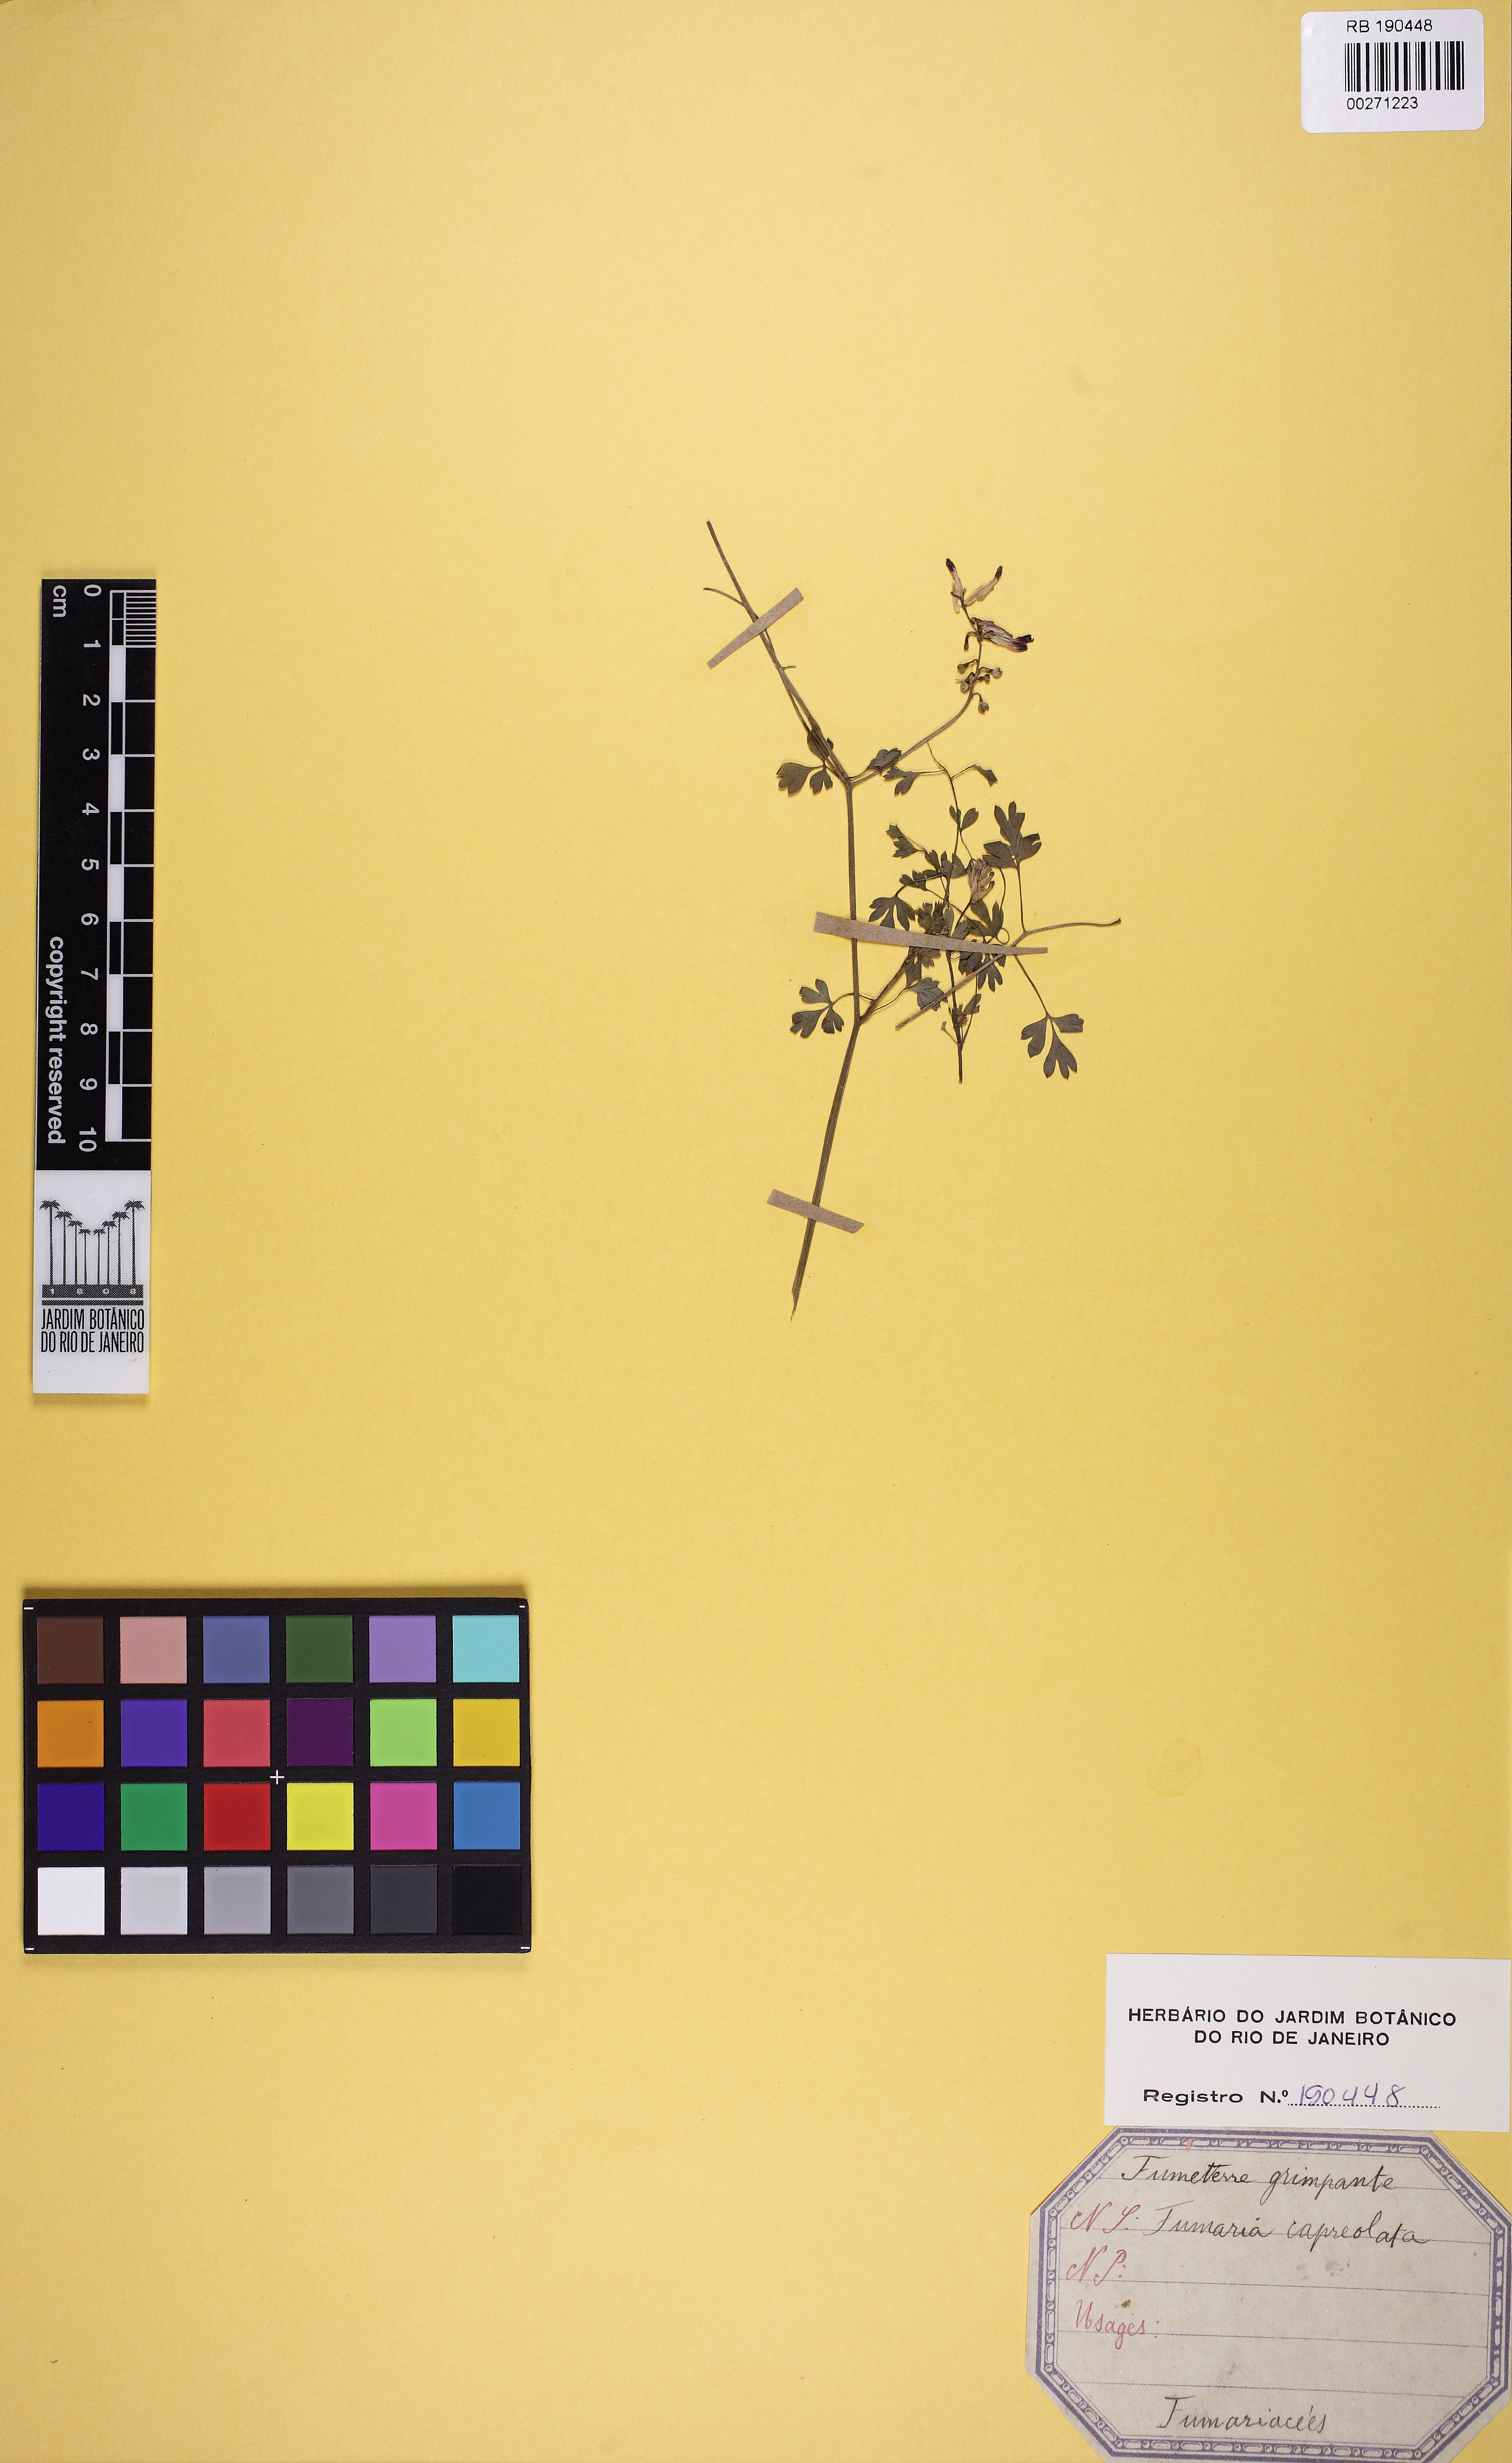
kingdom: Plantae
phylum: Tracheophyta
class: Magnoliopsida
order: Ranunculales
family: Papaveraceae
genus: Fumaria
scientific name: Fumaria capreolata
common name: White ramping-fumitory
